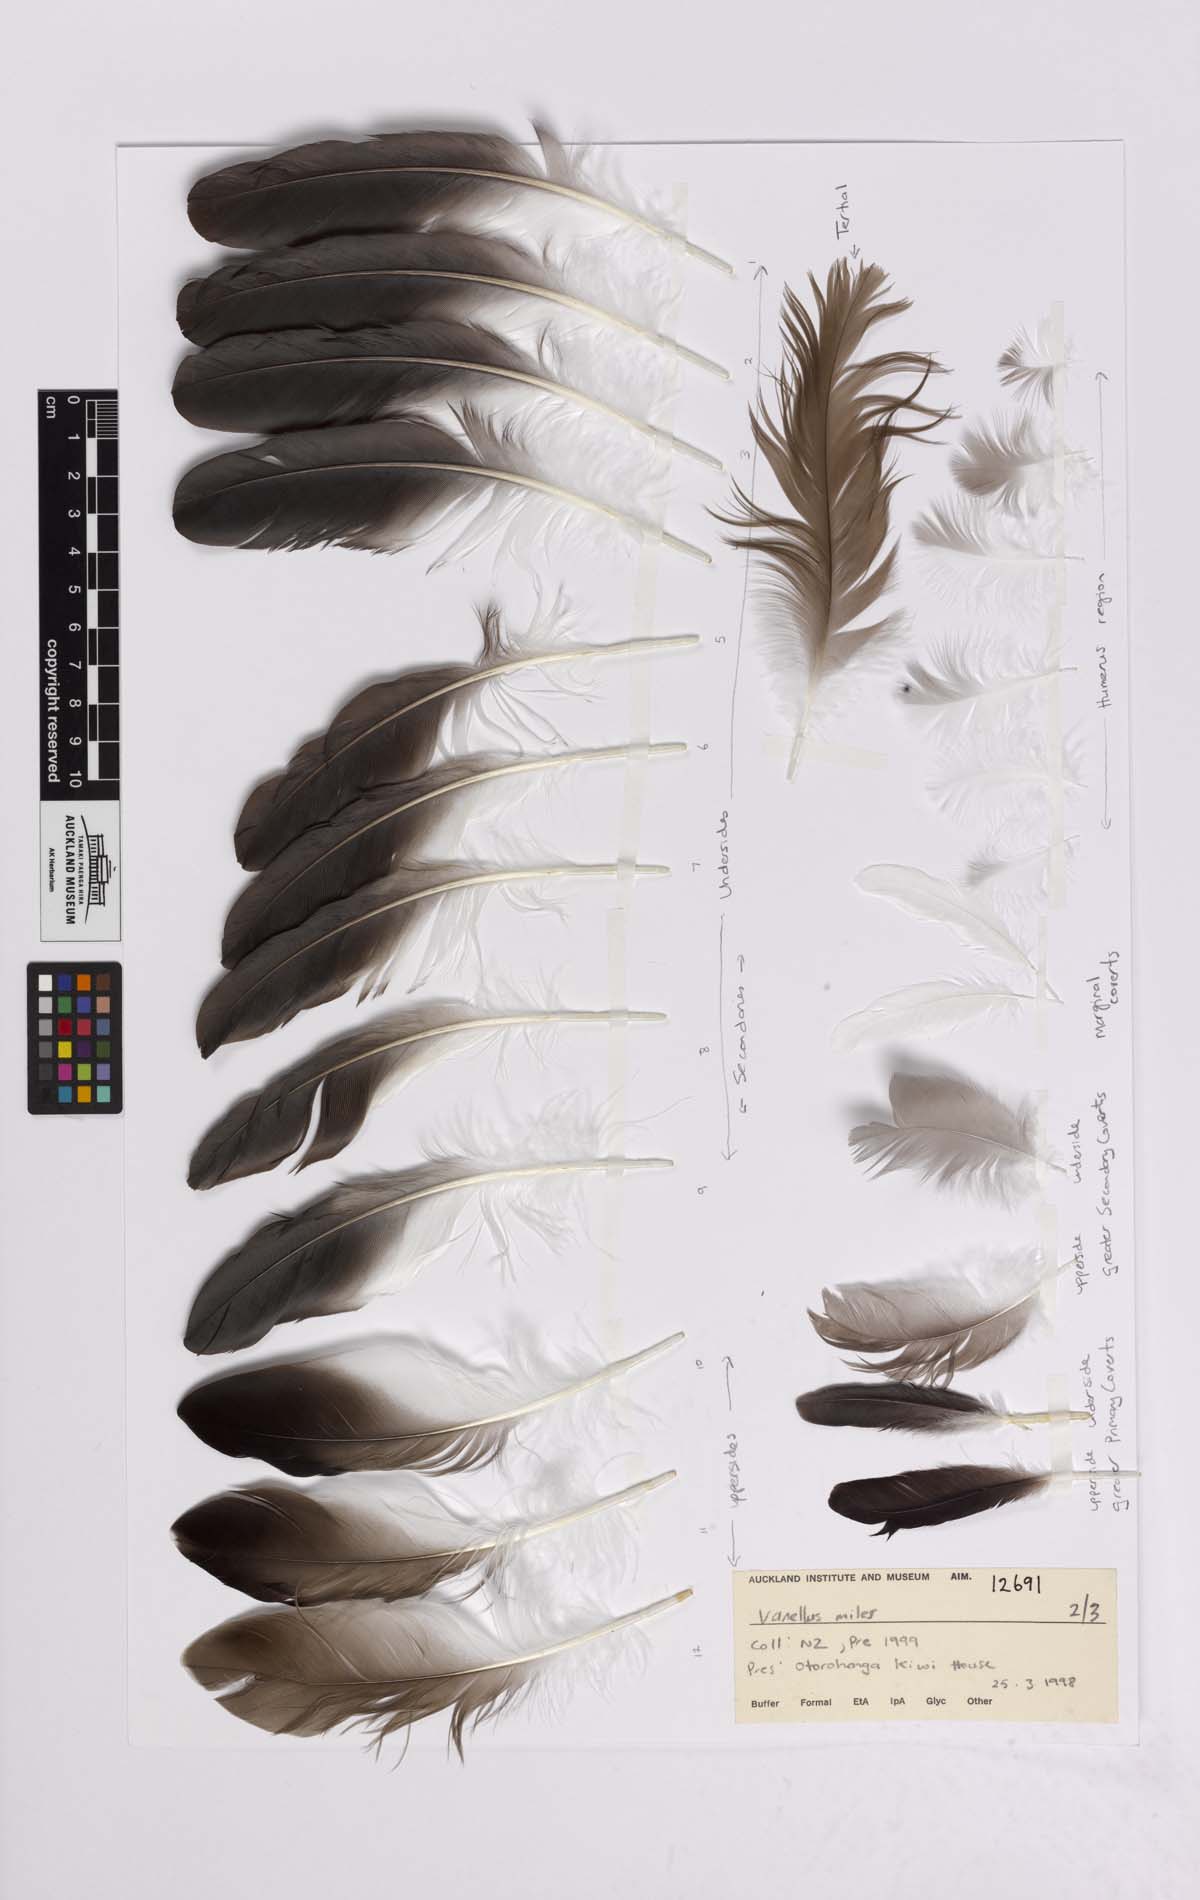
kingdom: Animalia
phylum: Chordata
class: Aves
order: Charadriiformes
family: Charadriidae
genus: Vanellus
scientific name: Vanellus miles
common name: Masked lapwing
